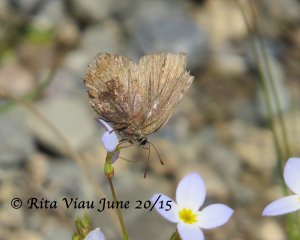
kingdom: Animalia
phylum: Arthropoda
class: Insecta
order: Lepidoptera
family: Lycaenidae
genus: Incisalia
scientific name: Incisalia irioides
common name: Brown Elfin
